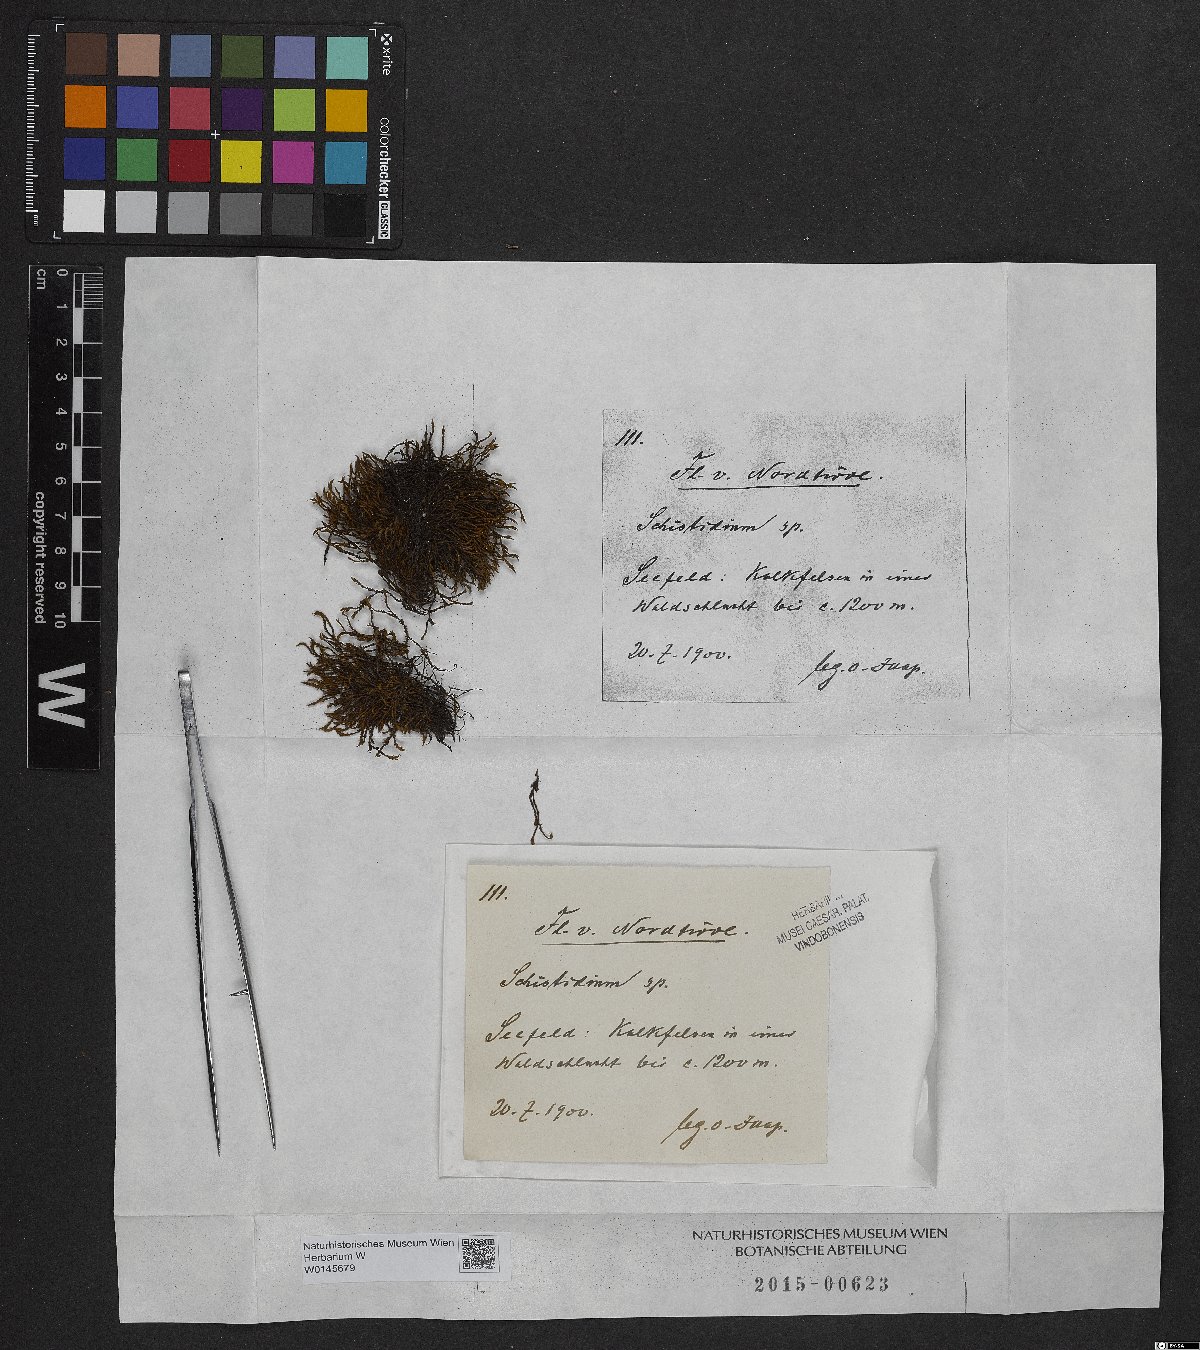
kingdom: Plantae
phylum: Bryophyta
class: Bryopsida
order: Grimmiales
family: Grimmiaceae
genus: Schistidium
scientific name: Schistidium
